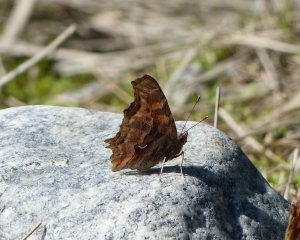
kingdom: Animalia
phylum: Arthropoda
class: Insecta
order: Lepidoptera
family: Nymphalidae
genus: Polygonia
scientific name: Polygonia satyrus
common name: Satyr Comma
